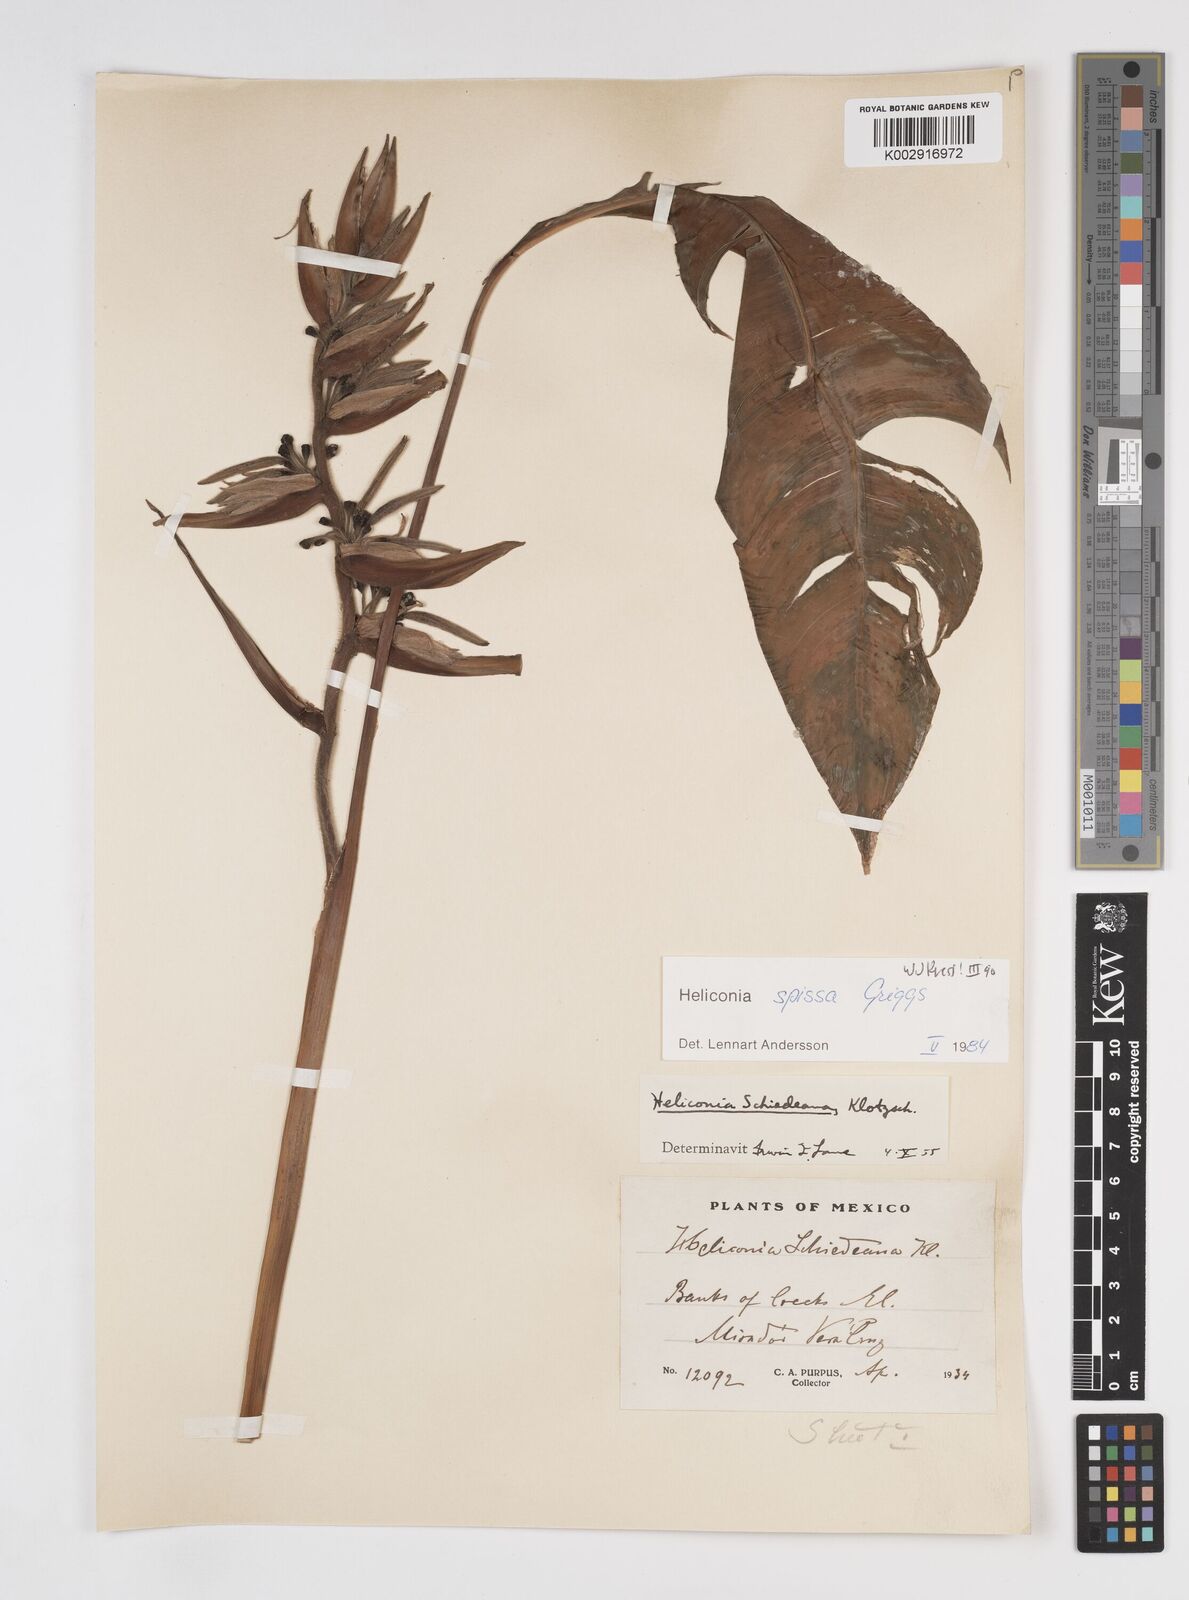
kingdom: Plantae
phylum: Tracheophyta
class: Liliopsida
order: Zingiberales
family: Heliconiaceae
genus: Heliconia
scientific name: Heliconia spissa
